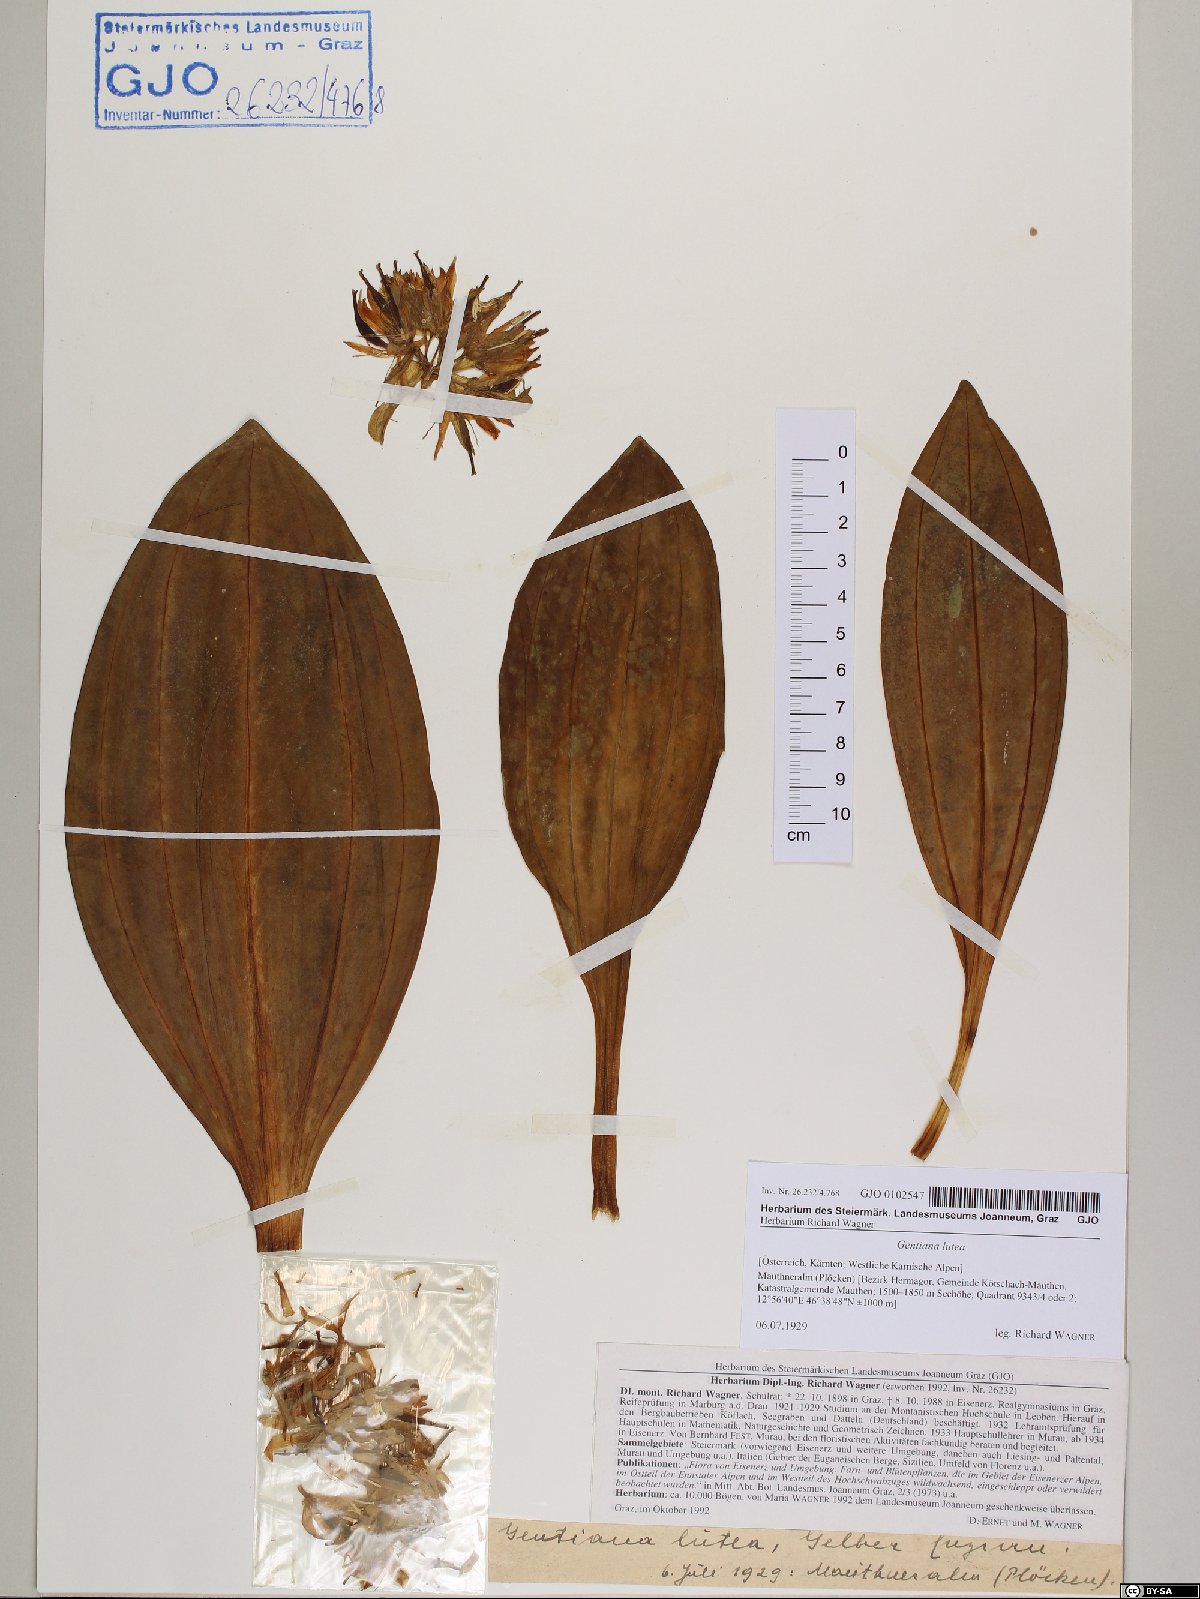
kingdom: Plantae
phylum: Tracheophyta
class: Magnoliopsida
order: Gentianales
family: Gentianaceae
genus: Gentiana
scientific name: Gentiana lutea
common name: Great yellow gentian
